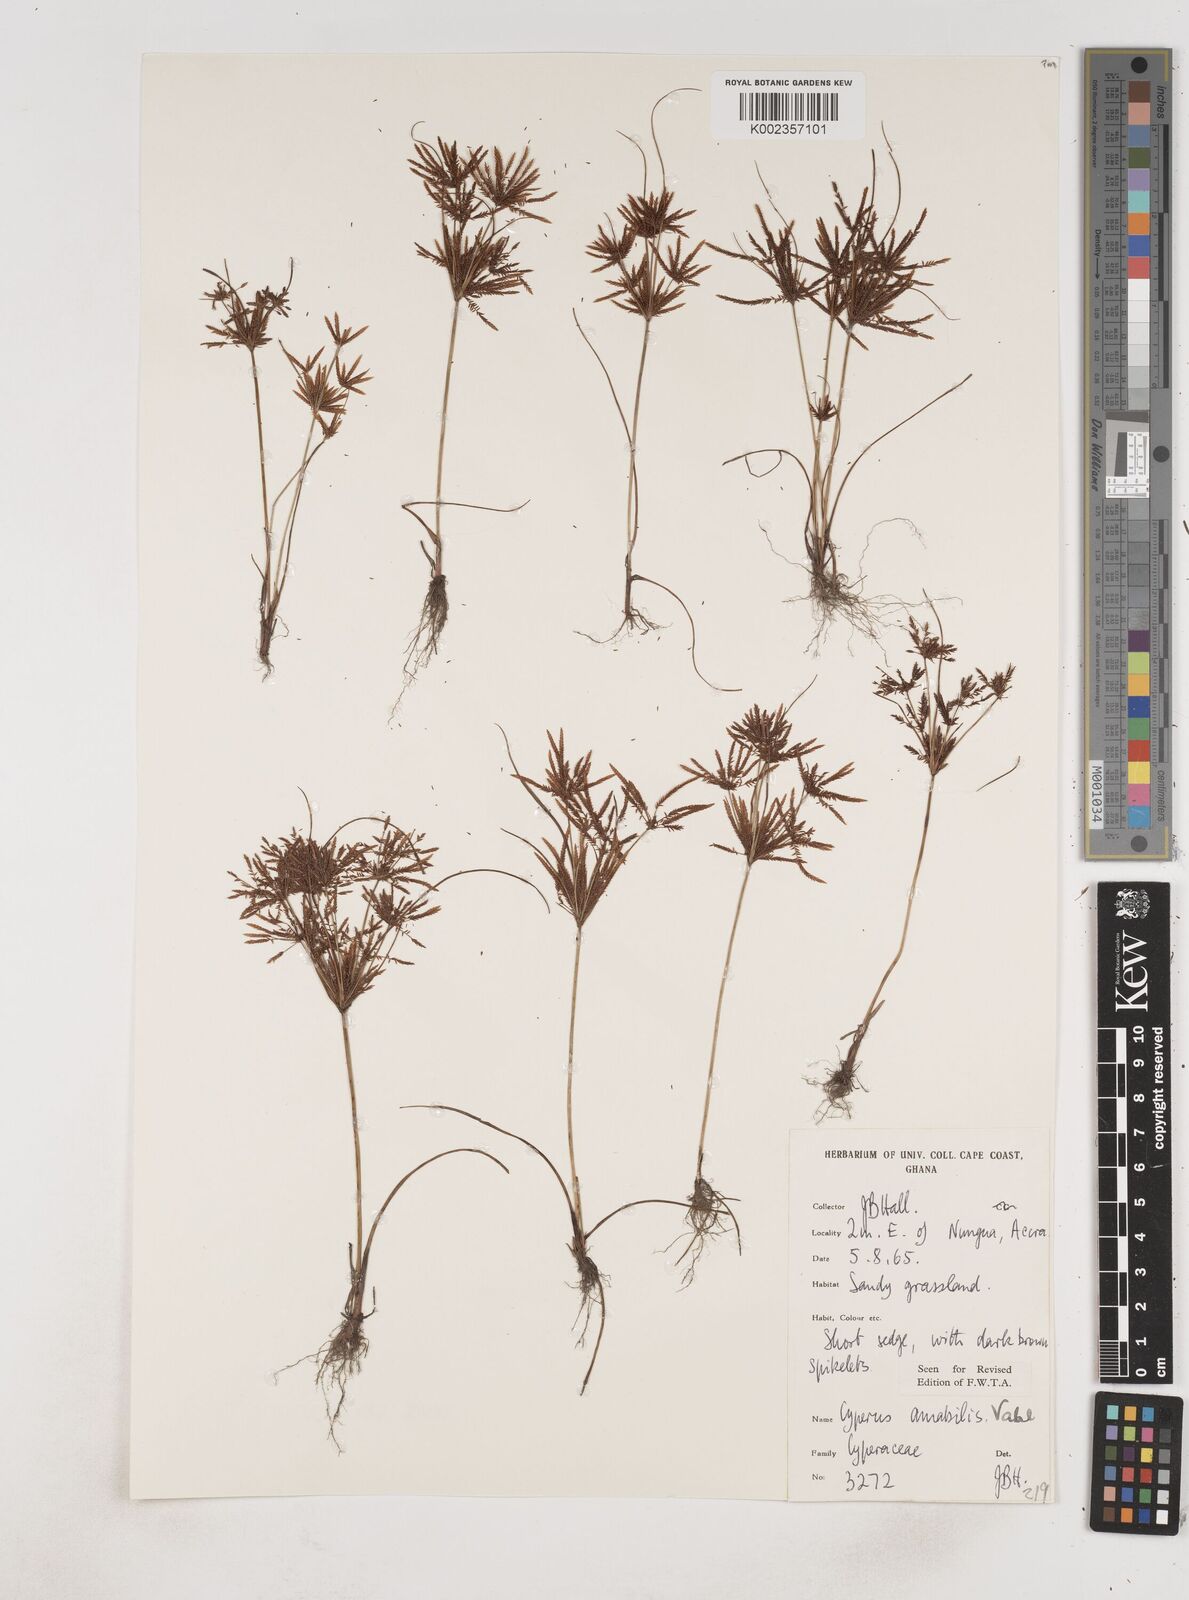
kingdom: Plantae
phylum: Tracheophyta
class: Liliopsida
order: Poales
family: Cyperaceae
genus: Cyperus
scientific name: Cyperus amabilis
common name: Foothill flat sedge
